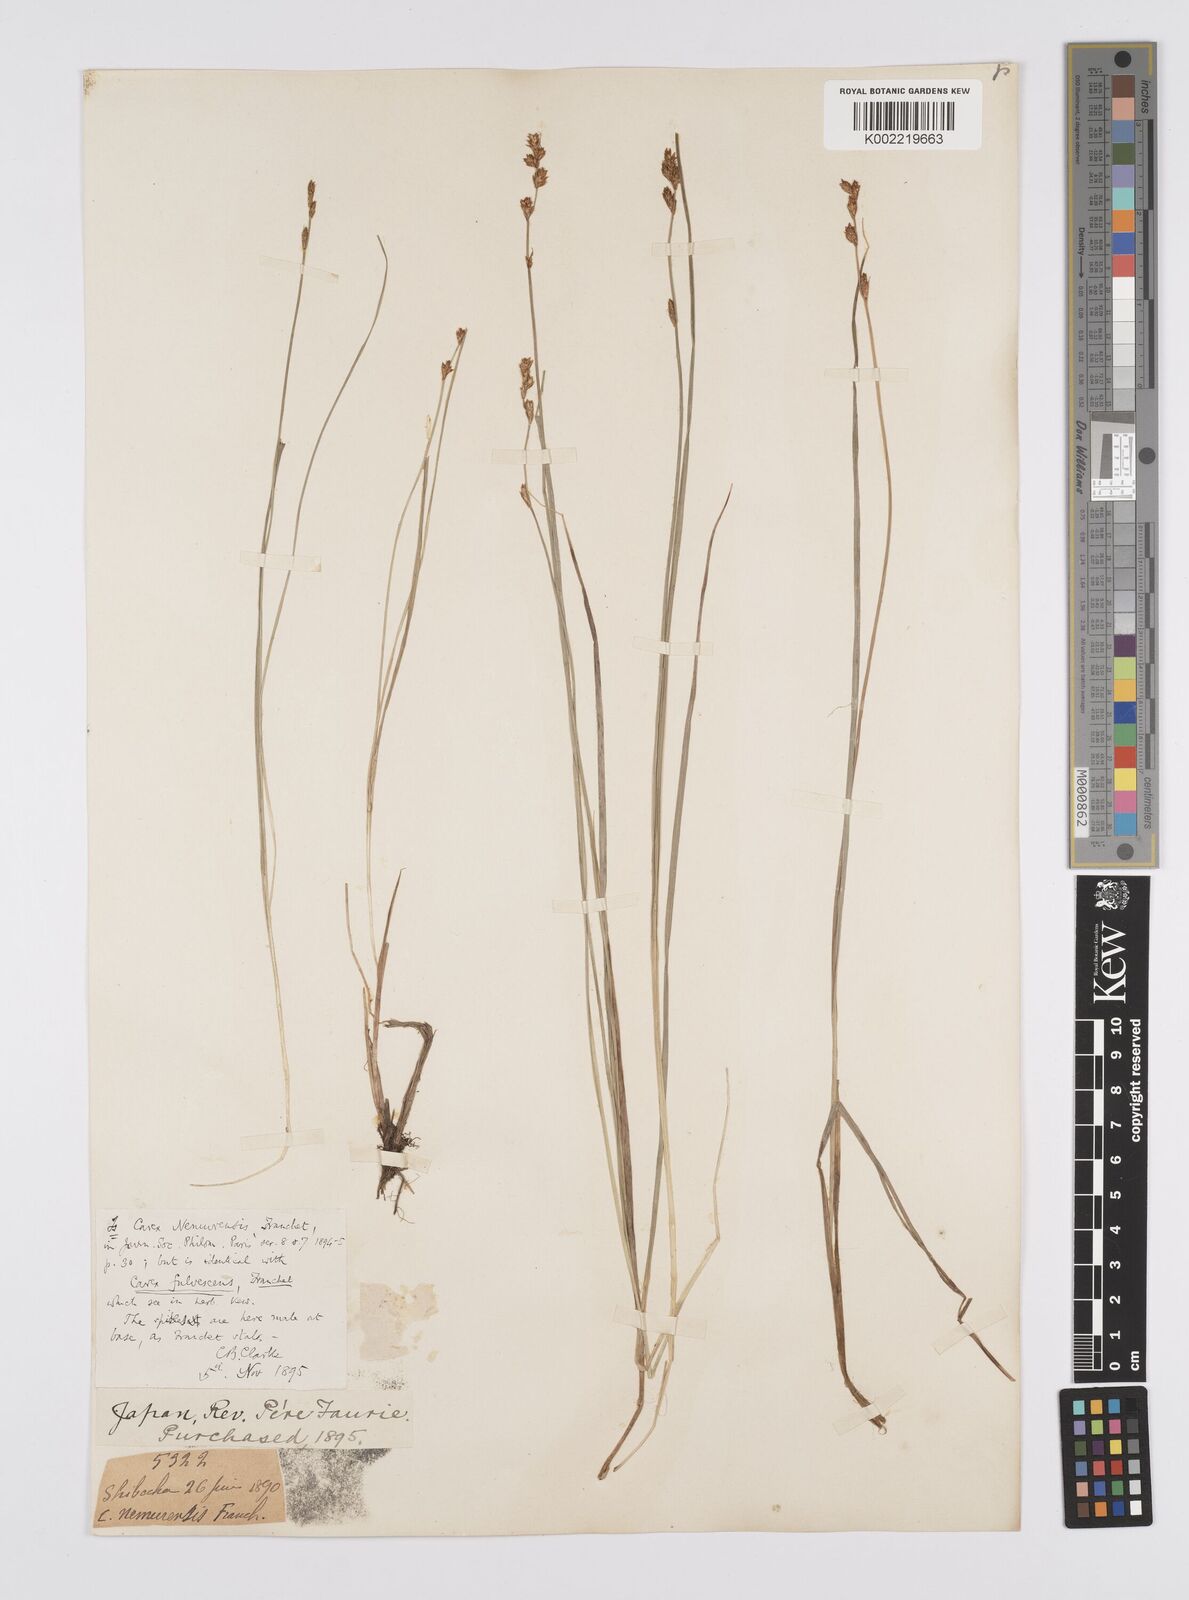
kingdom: Plantae
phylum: Tracheophyta
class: Liliopsida
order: Poales
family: Cyperaceae
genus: Carex
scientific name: Carex traiziscana
